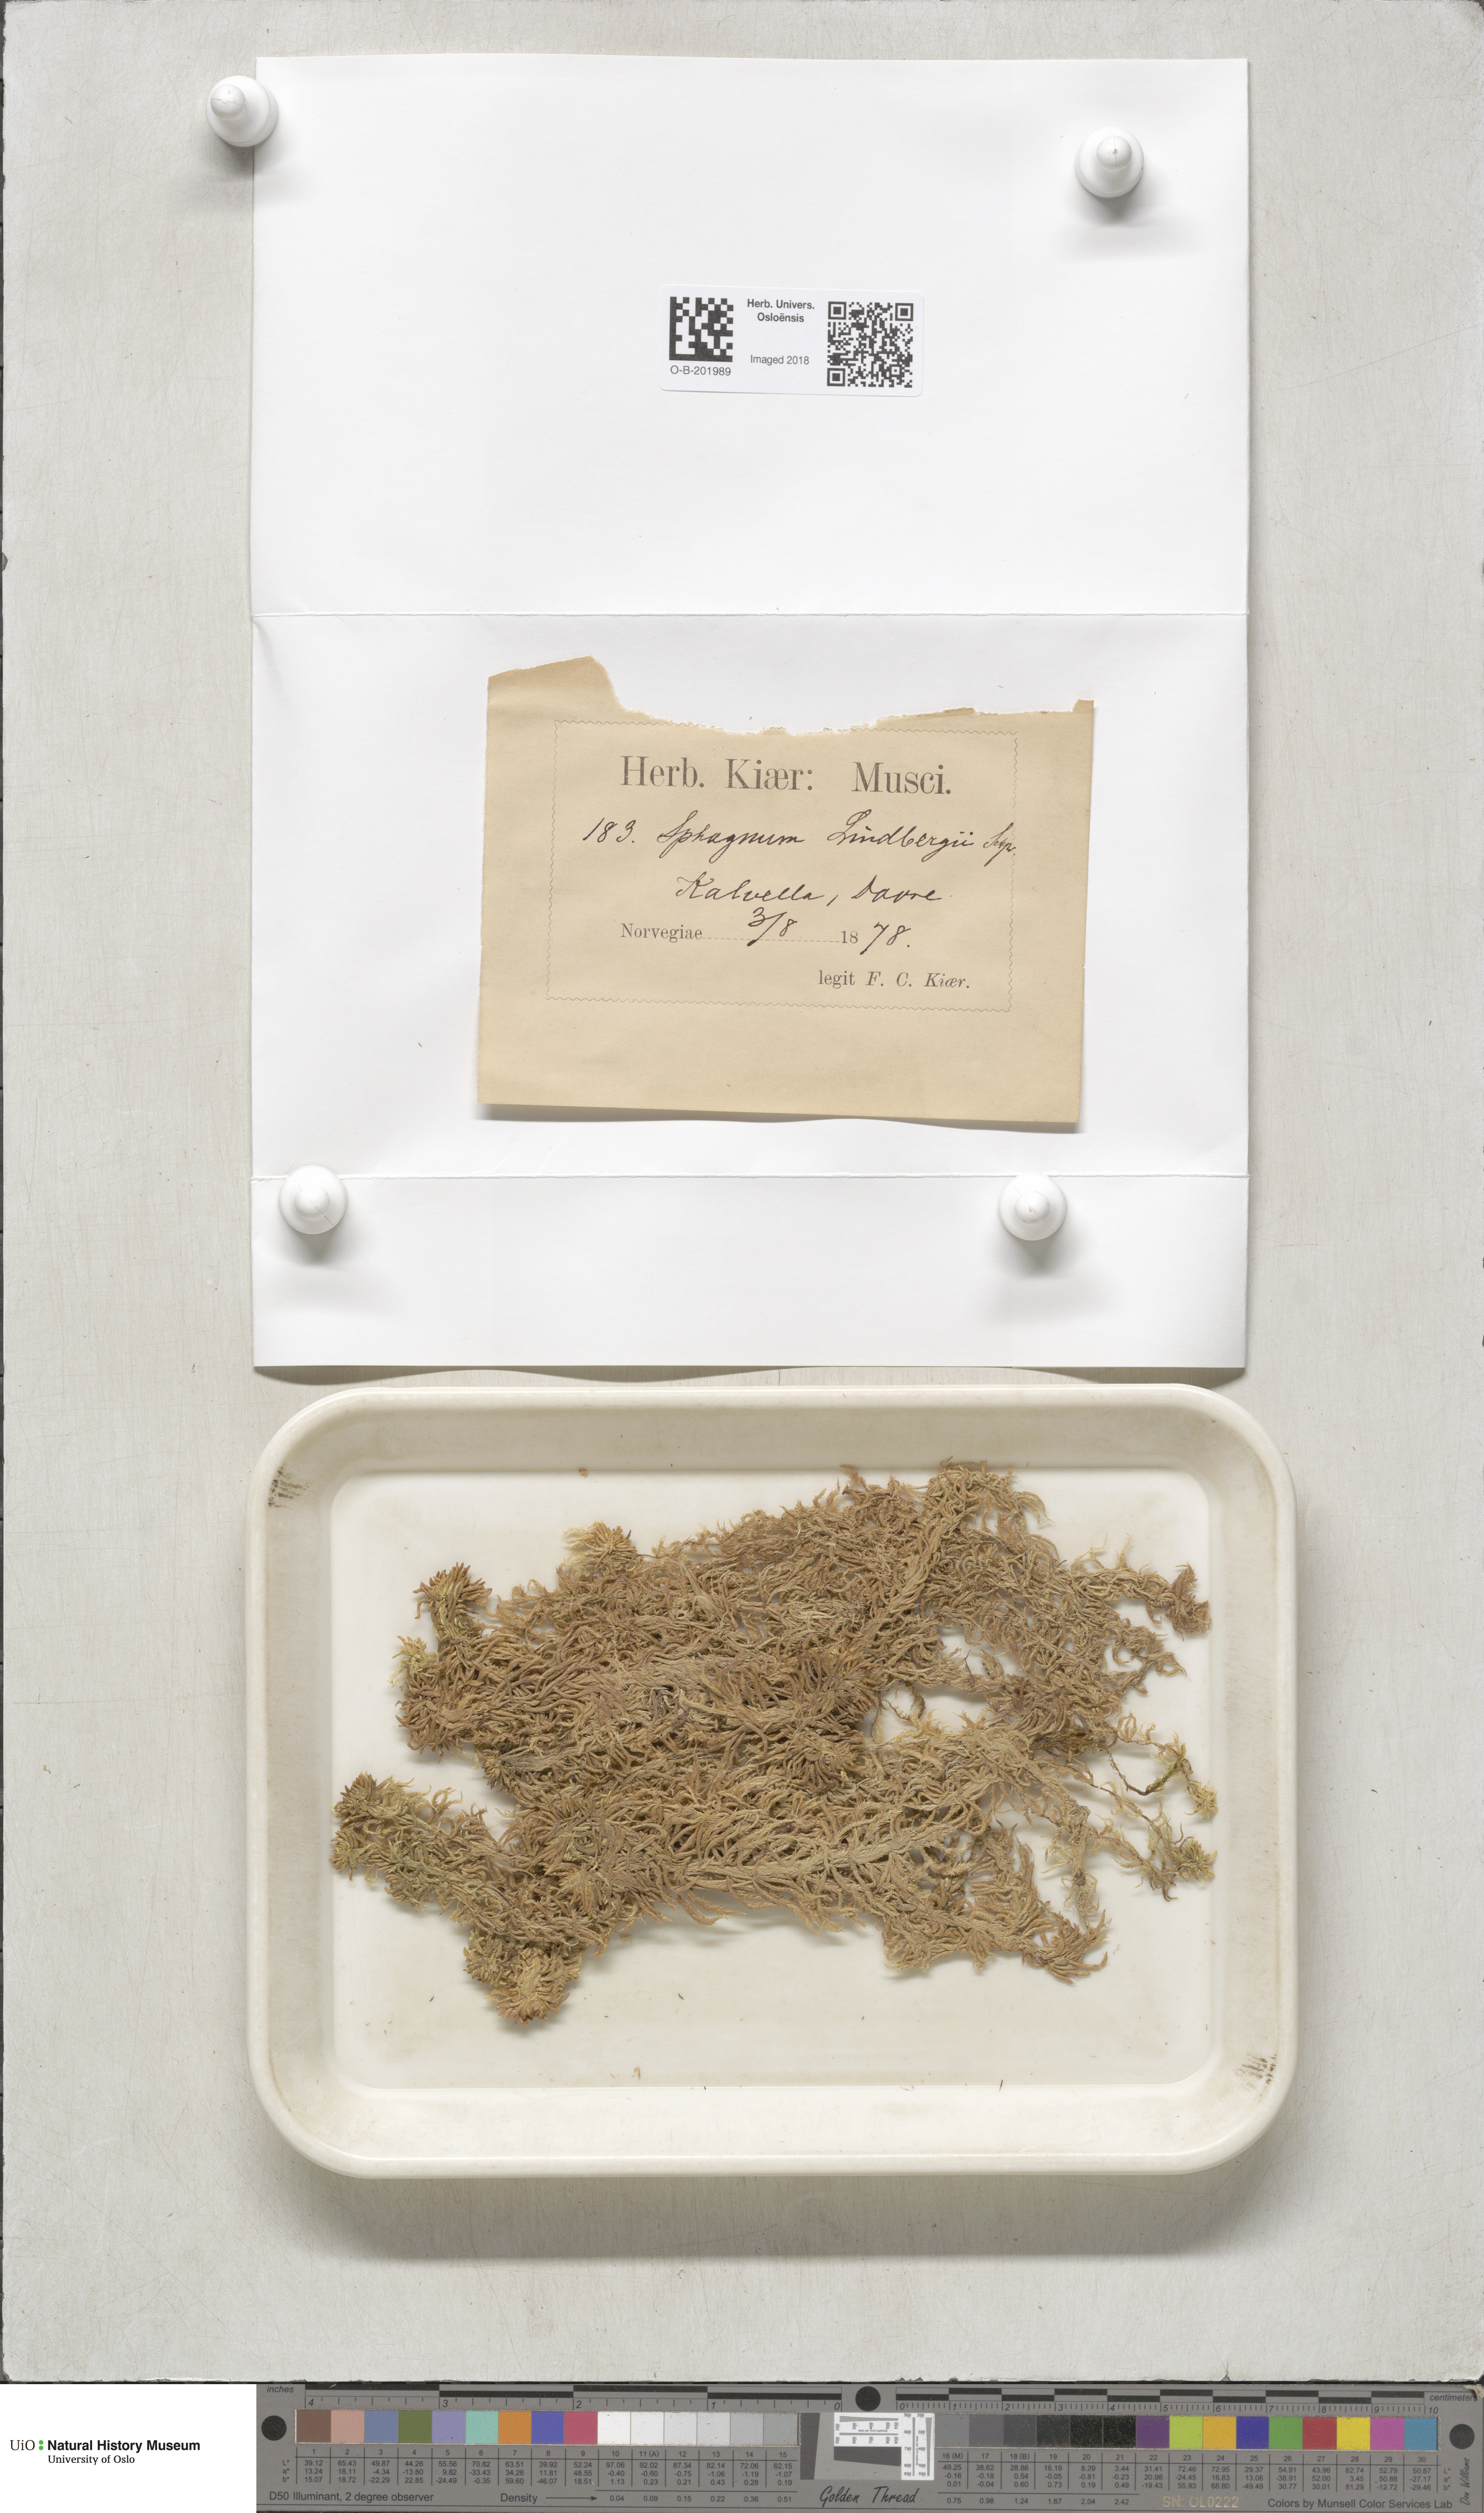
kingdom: Plantae
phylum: Bryophyta
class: Sphagnopsida
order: Sphagnales
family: Sphagnaceae
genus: Sphagnum
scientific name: Sphagnum lindbergii
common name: Lindberg's peat moss
